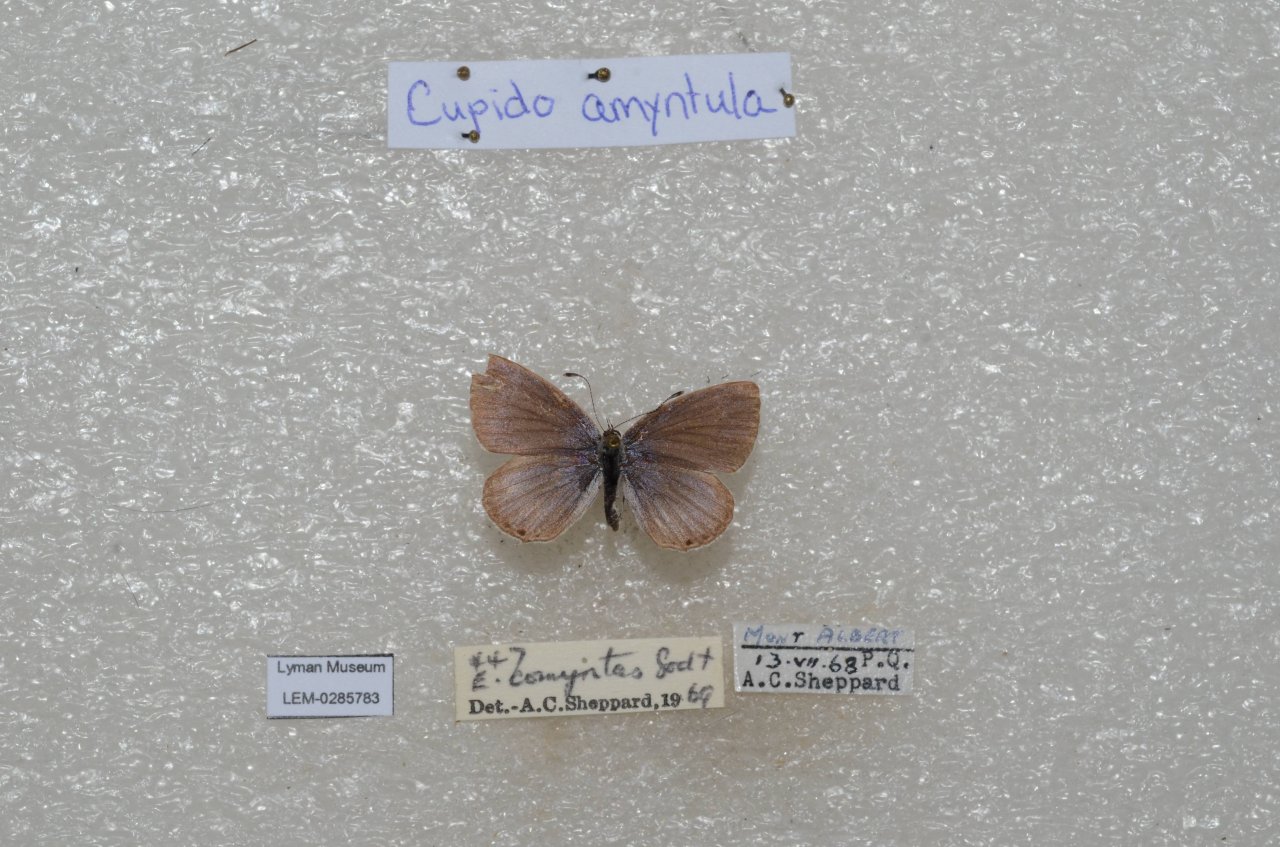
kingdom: Animalia
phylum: Arthropoda
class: Insecta
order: Lepidoptera
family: Lycaenidae
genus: Elkalyce
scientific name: Elkalyce amyntula
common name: Western Tailed-Blue
